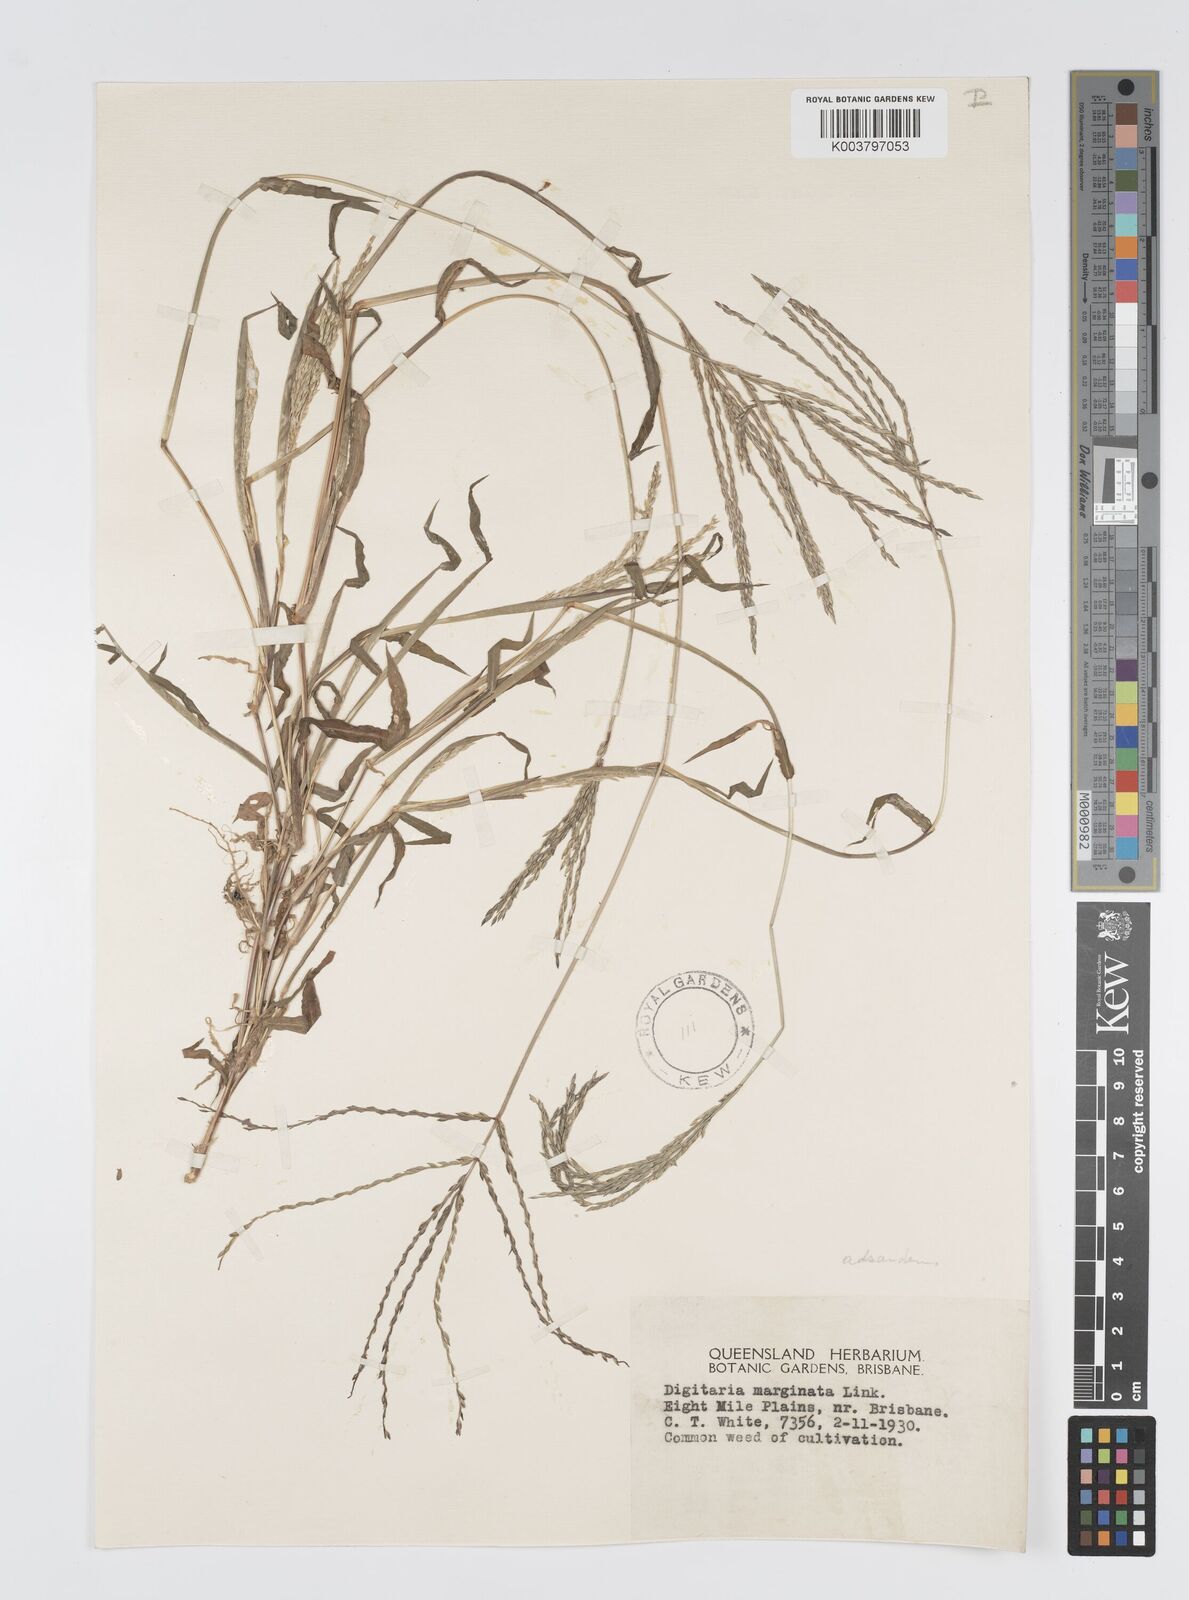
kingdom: Plantae
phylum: Tracheophyta
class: Liliopsida
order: Poales
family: Poaceae
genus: Digitaria
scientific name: Digitaria ciliaris
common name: Tropical finger-grass
